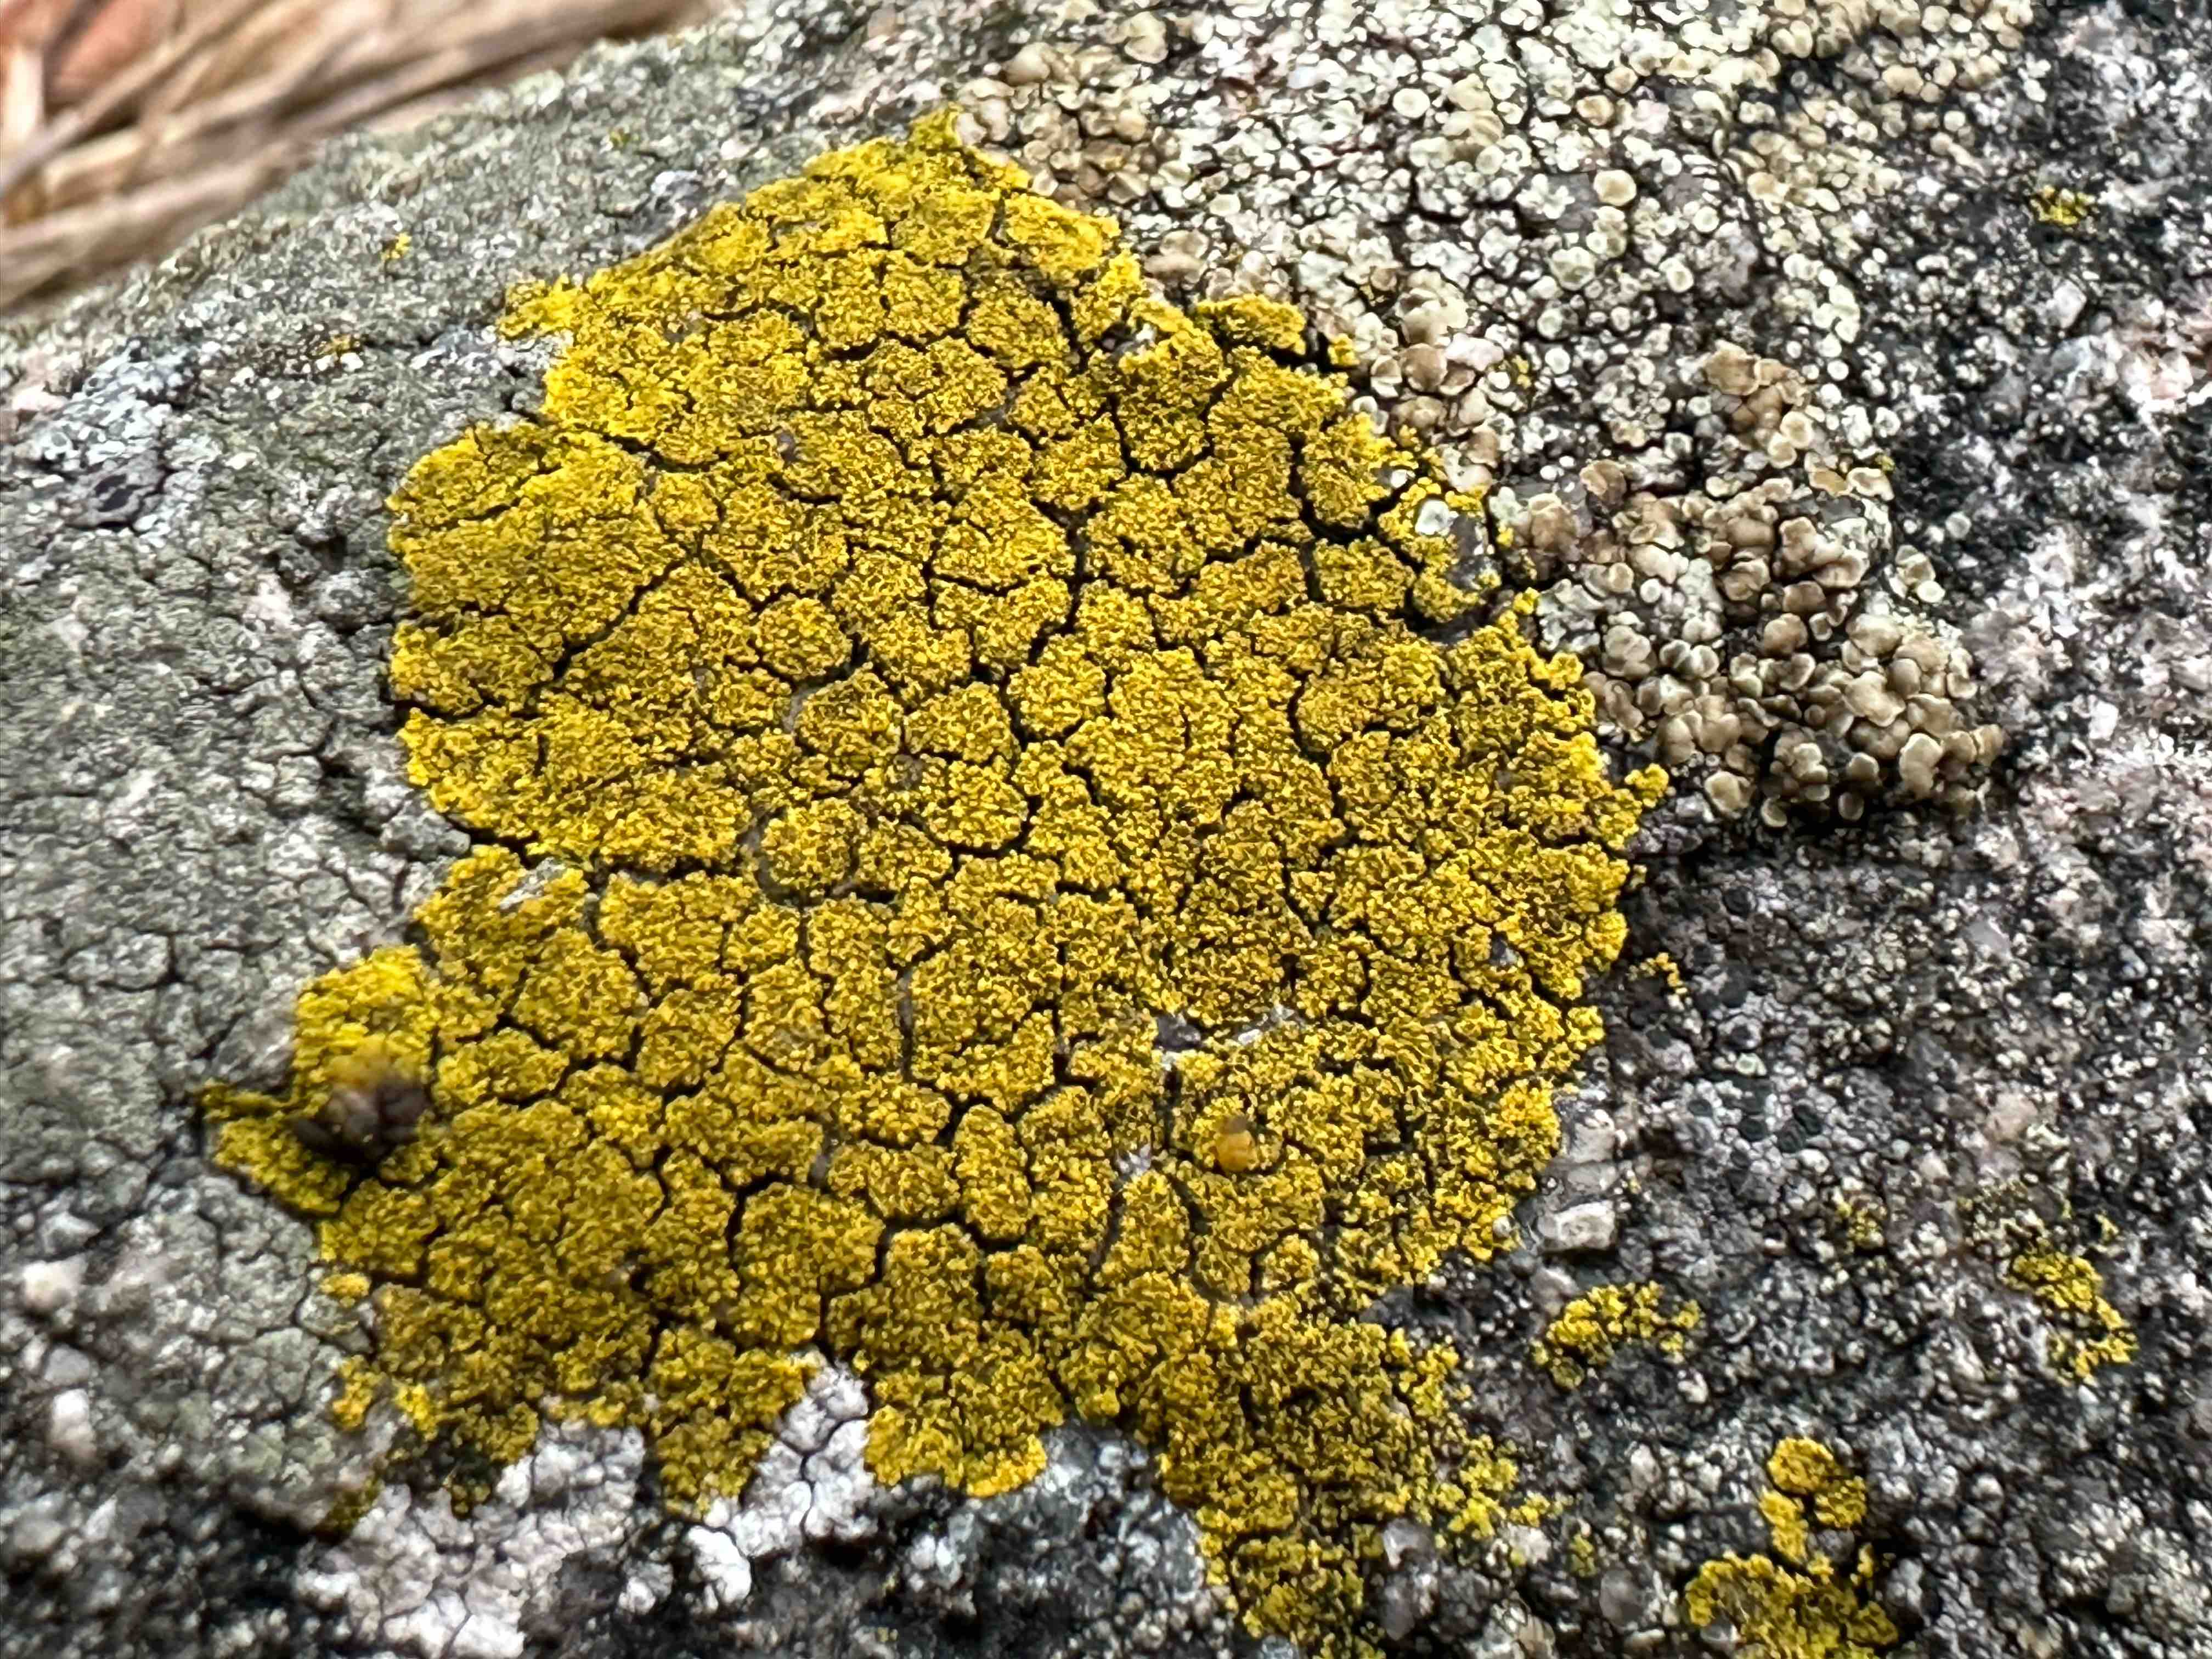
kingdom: Fungi
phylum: Ascomycota
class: Candelariomycetes
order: Candelariales
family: Candelariaceae
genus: Candelariella
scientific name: Candelariella vitellina
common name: almindelig æggeblommelav
